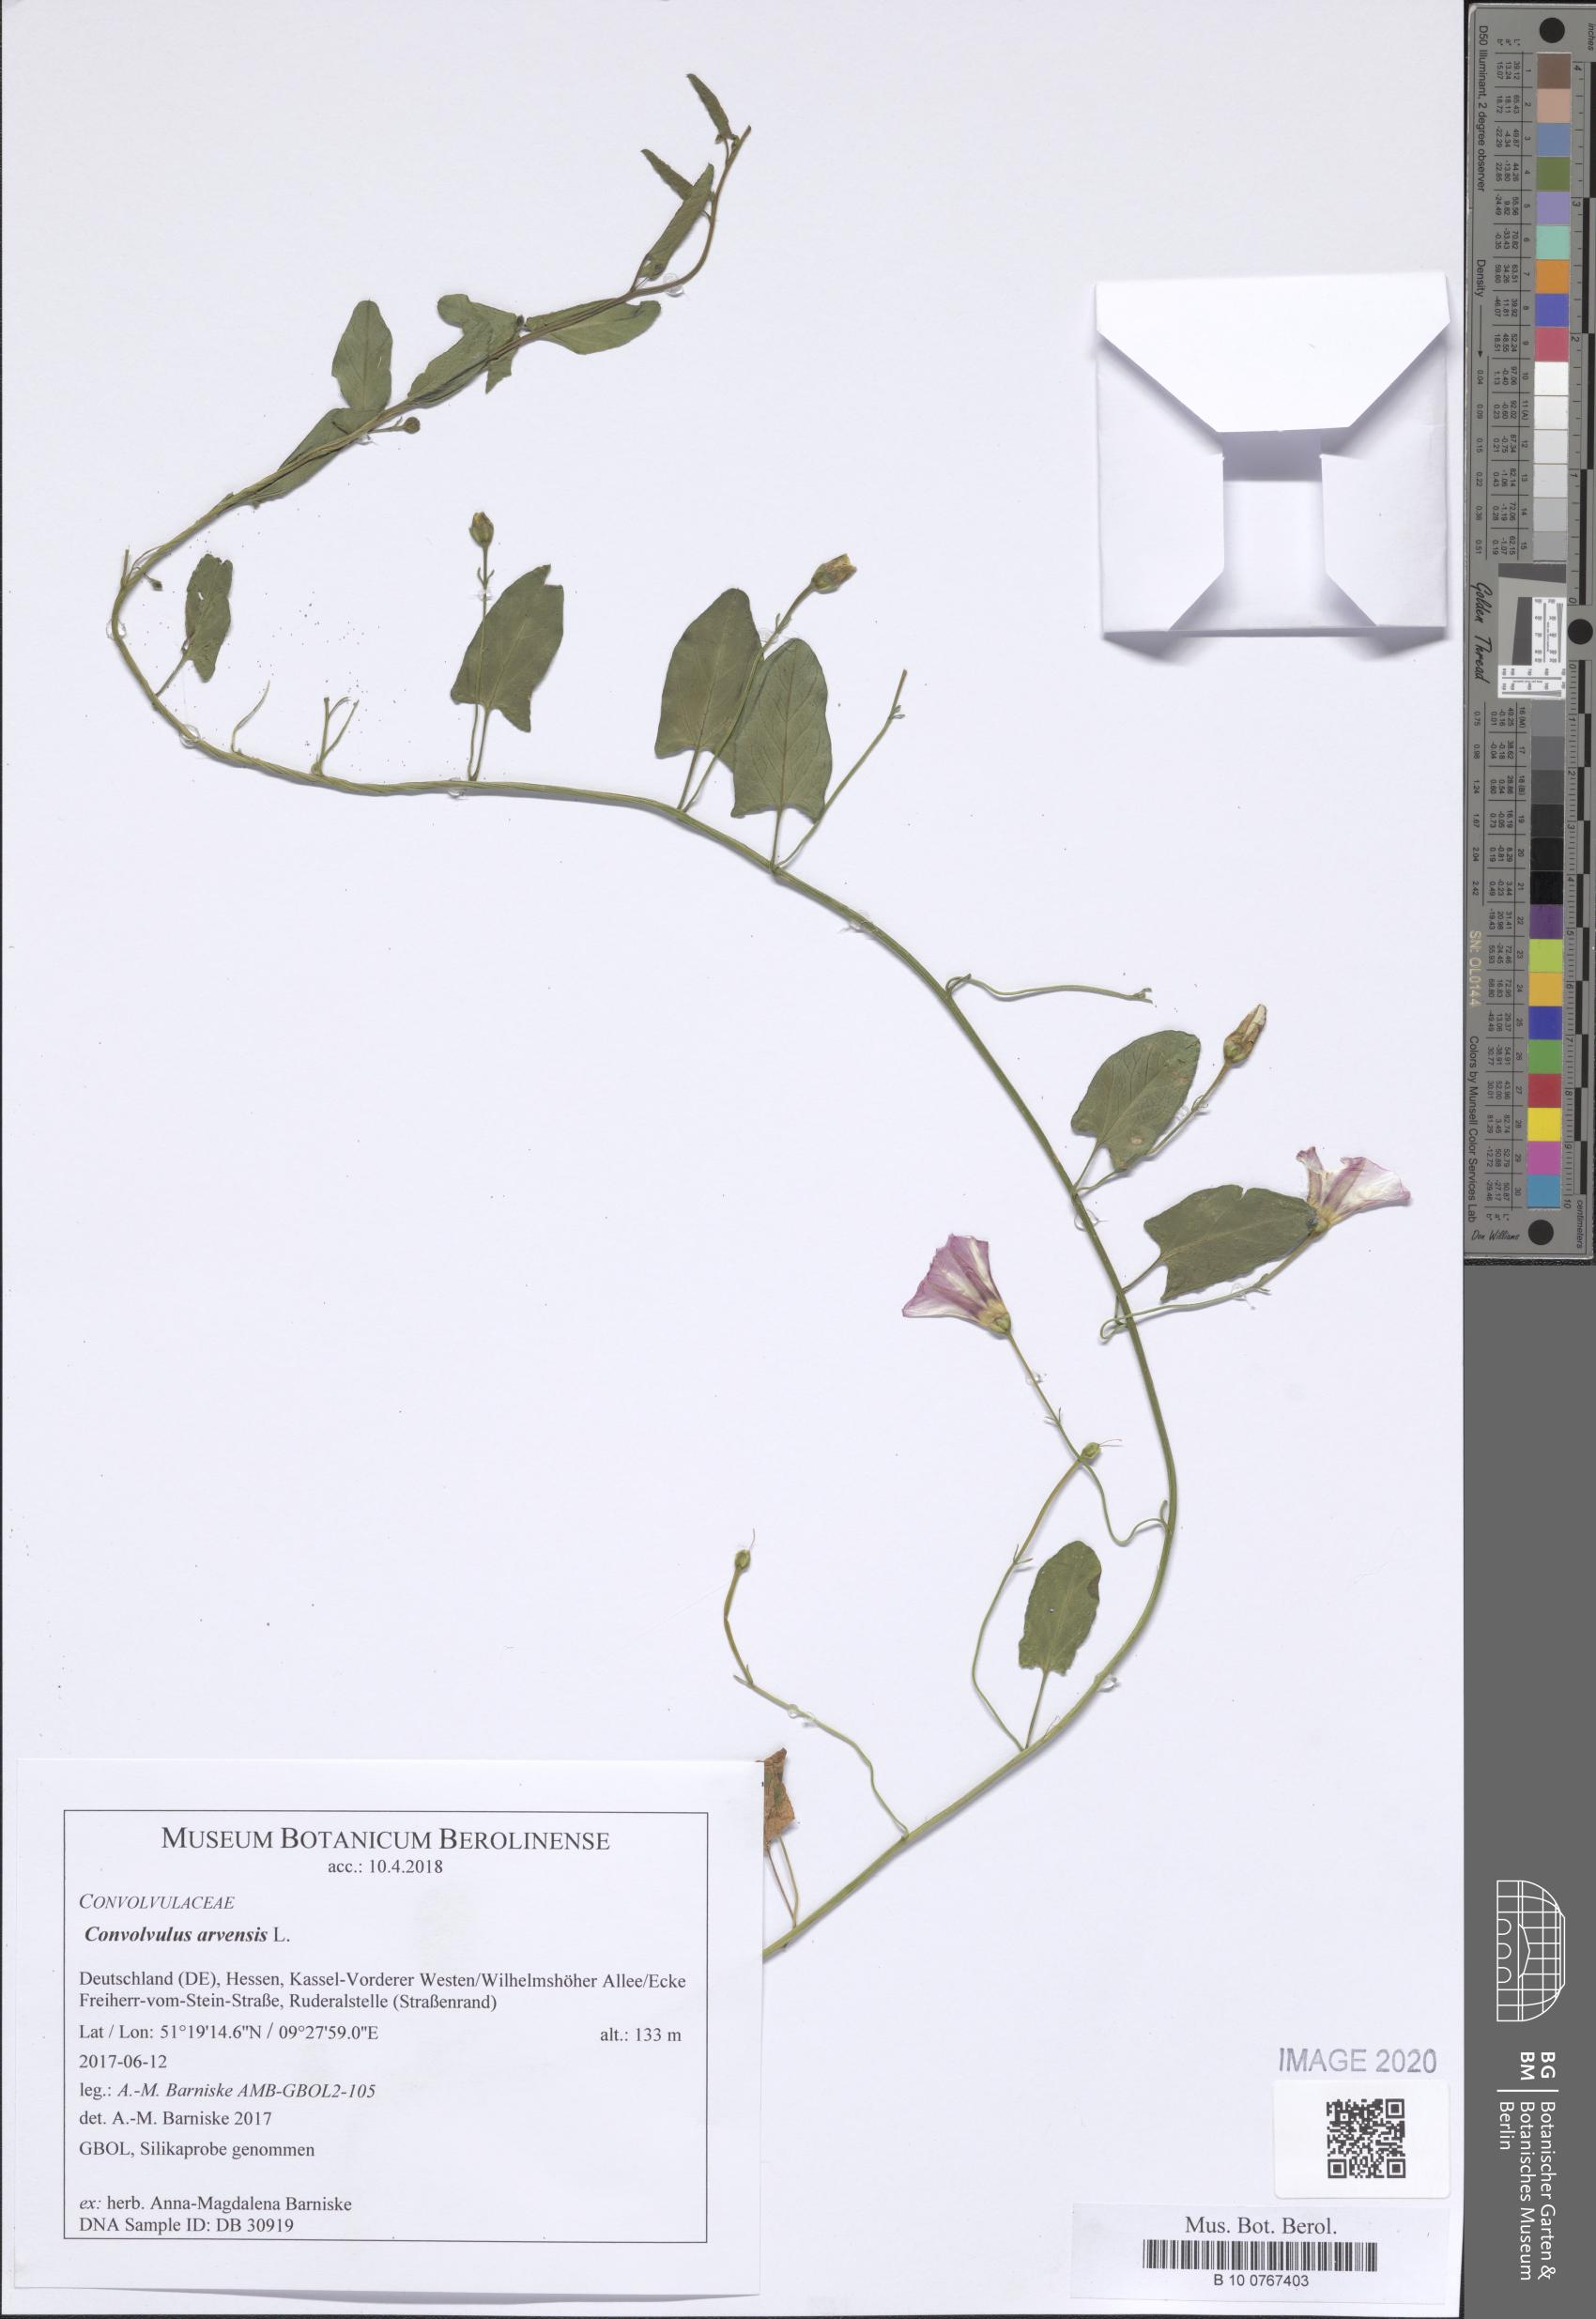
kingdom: Plantae
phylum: Tracheophyta
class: Magnoliopsida
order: Solanales
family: Convolvulaceae
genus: Convolvulus
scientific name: Convolvulus arvensis
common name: Field bindweed
